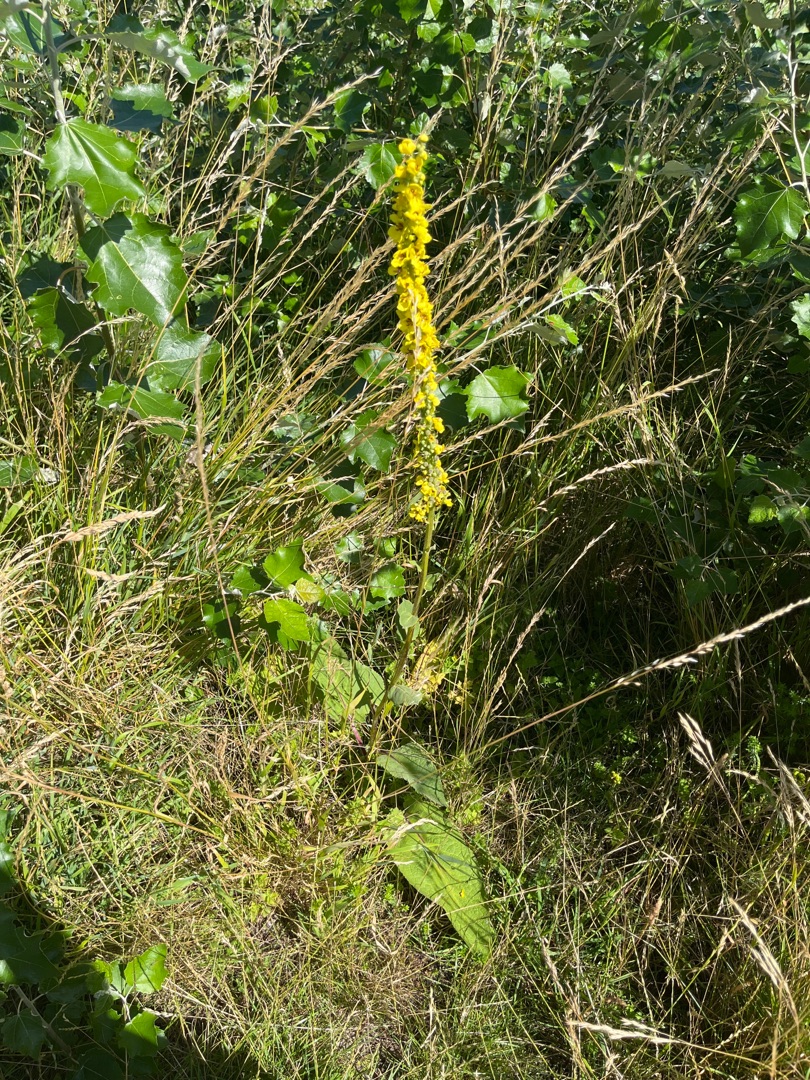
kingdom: Plantae
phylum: Tracheophyta
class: Magnoliopsida
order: Lamiales
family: Scrophulariaceae
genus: Verbascum
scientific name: Verbascum nigrum
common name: Mørk kongelys
